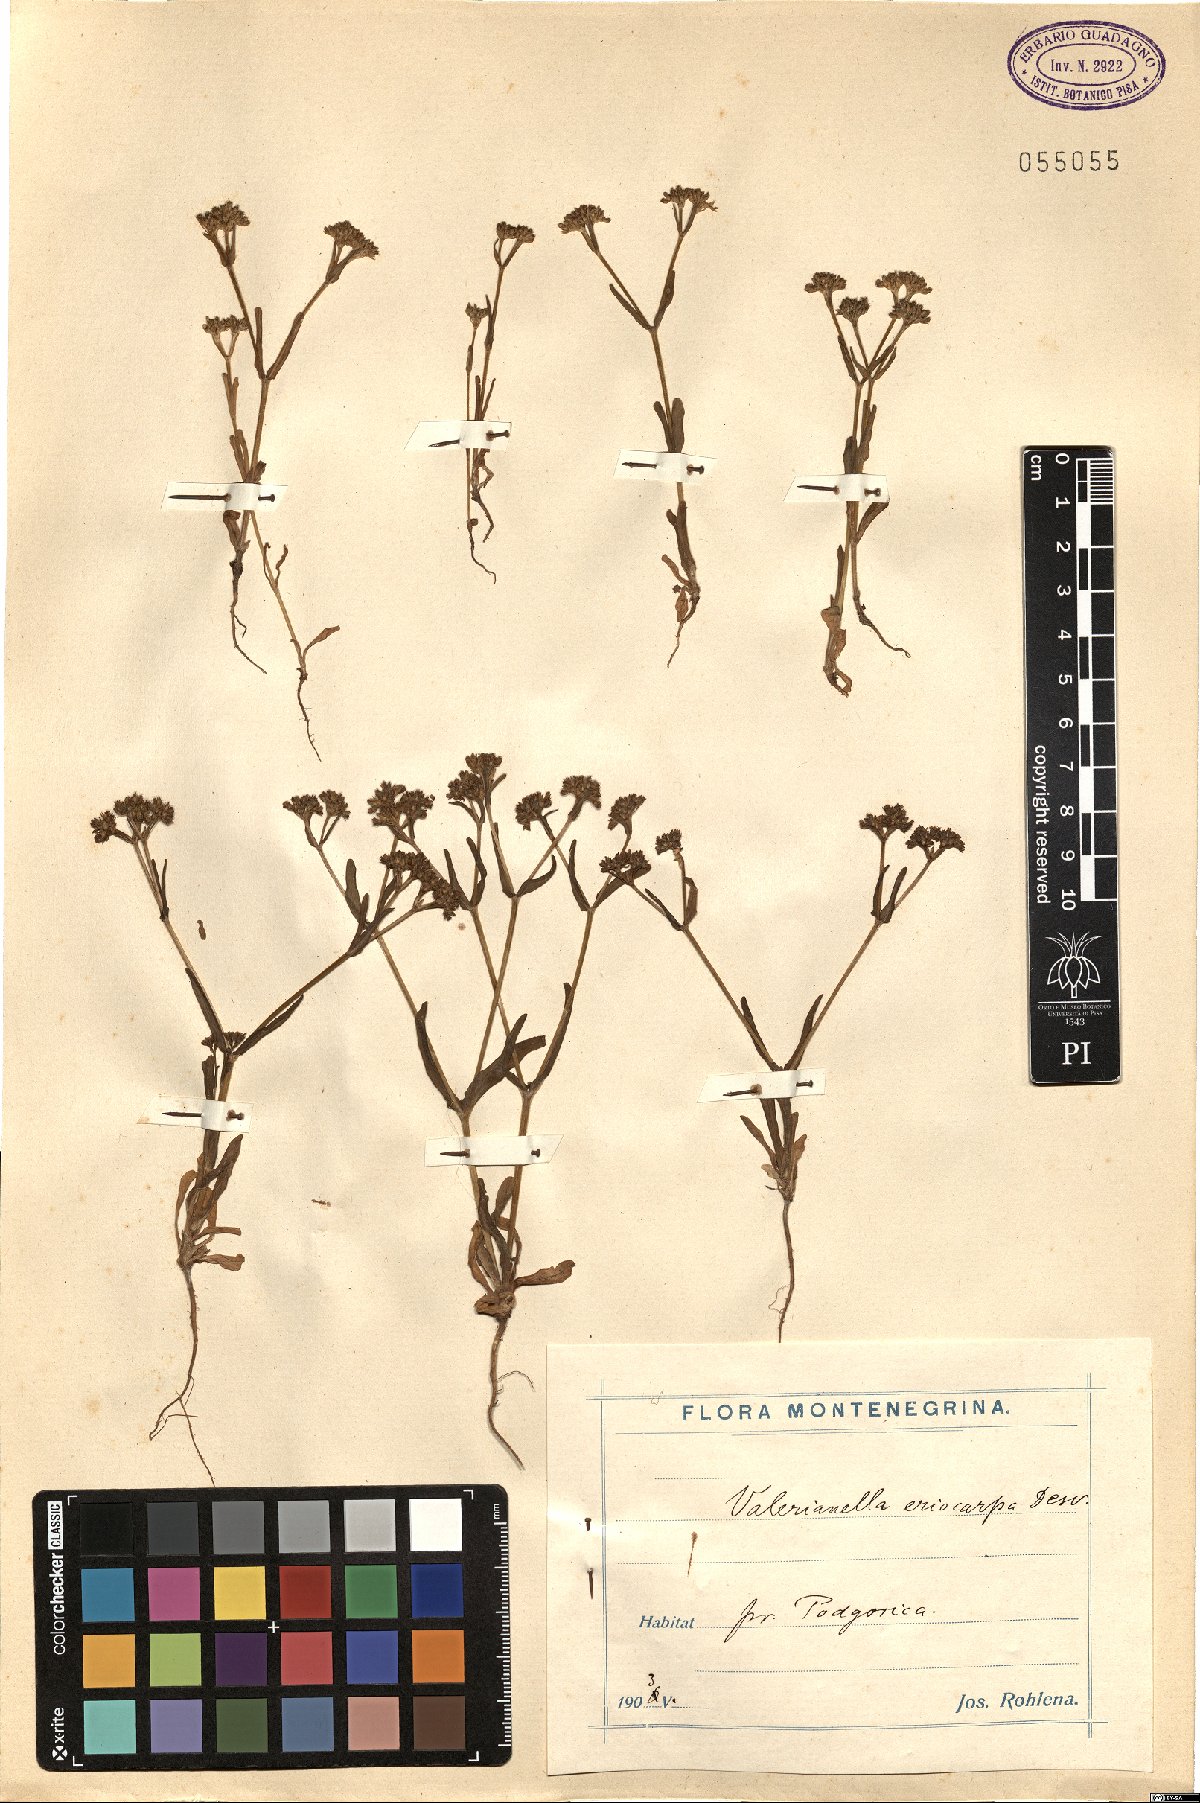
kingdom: Plantae
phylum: Tracheophyta
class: Magnoliopsida
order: Dipsacales
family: Caprifoliaceae
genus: Valerianella
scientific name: Valerianella eriocarpa
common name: Hairy-fruited cornsalad
